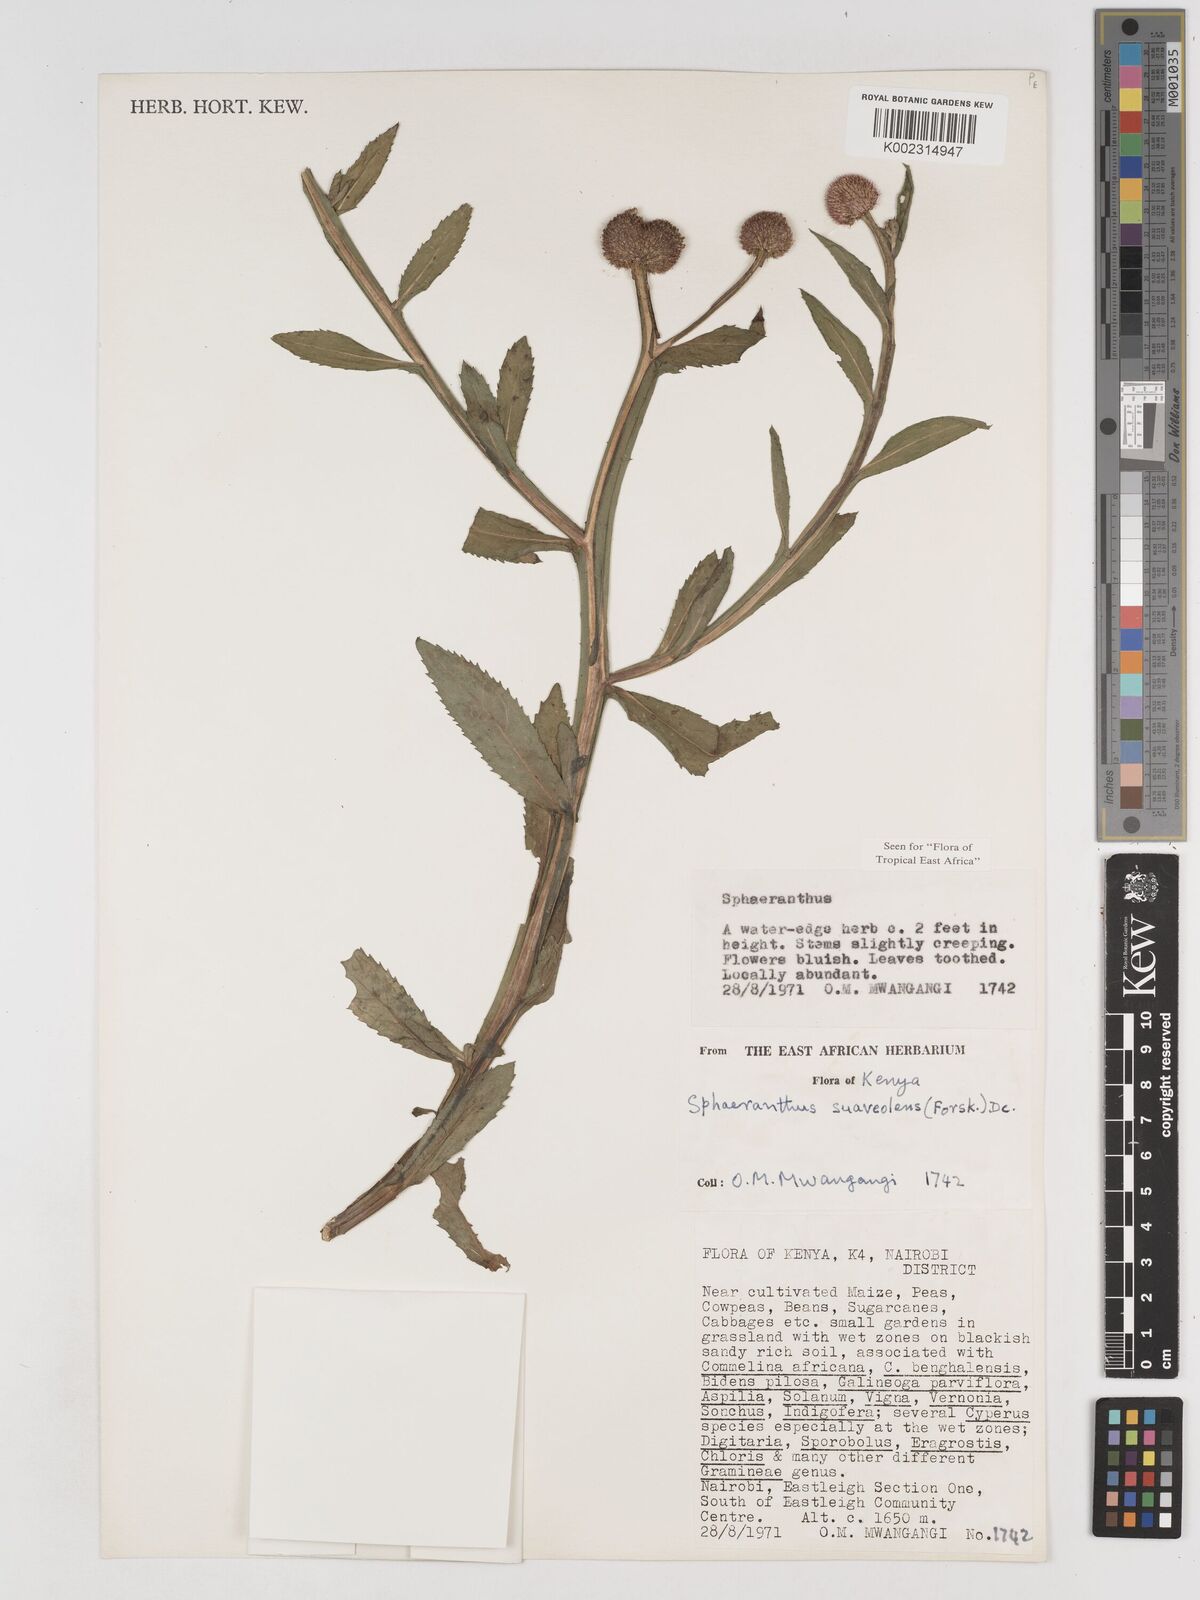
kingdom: Plantae
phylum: Tracheophyta
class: Magnoliopsida
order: Asterales
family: Asteraceae
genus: Sphaeranthus
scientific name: Sphaeranthus suaveolens
